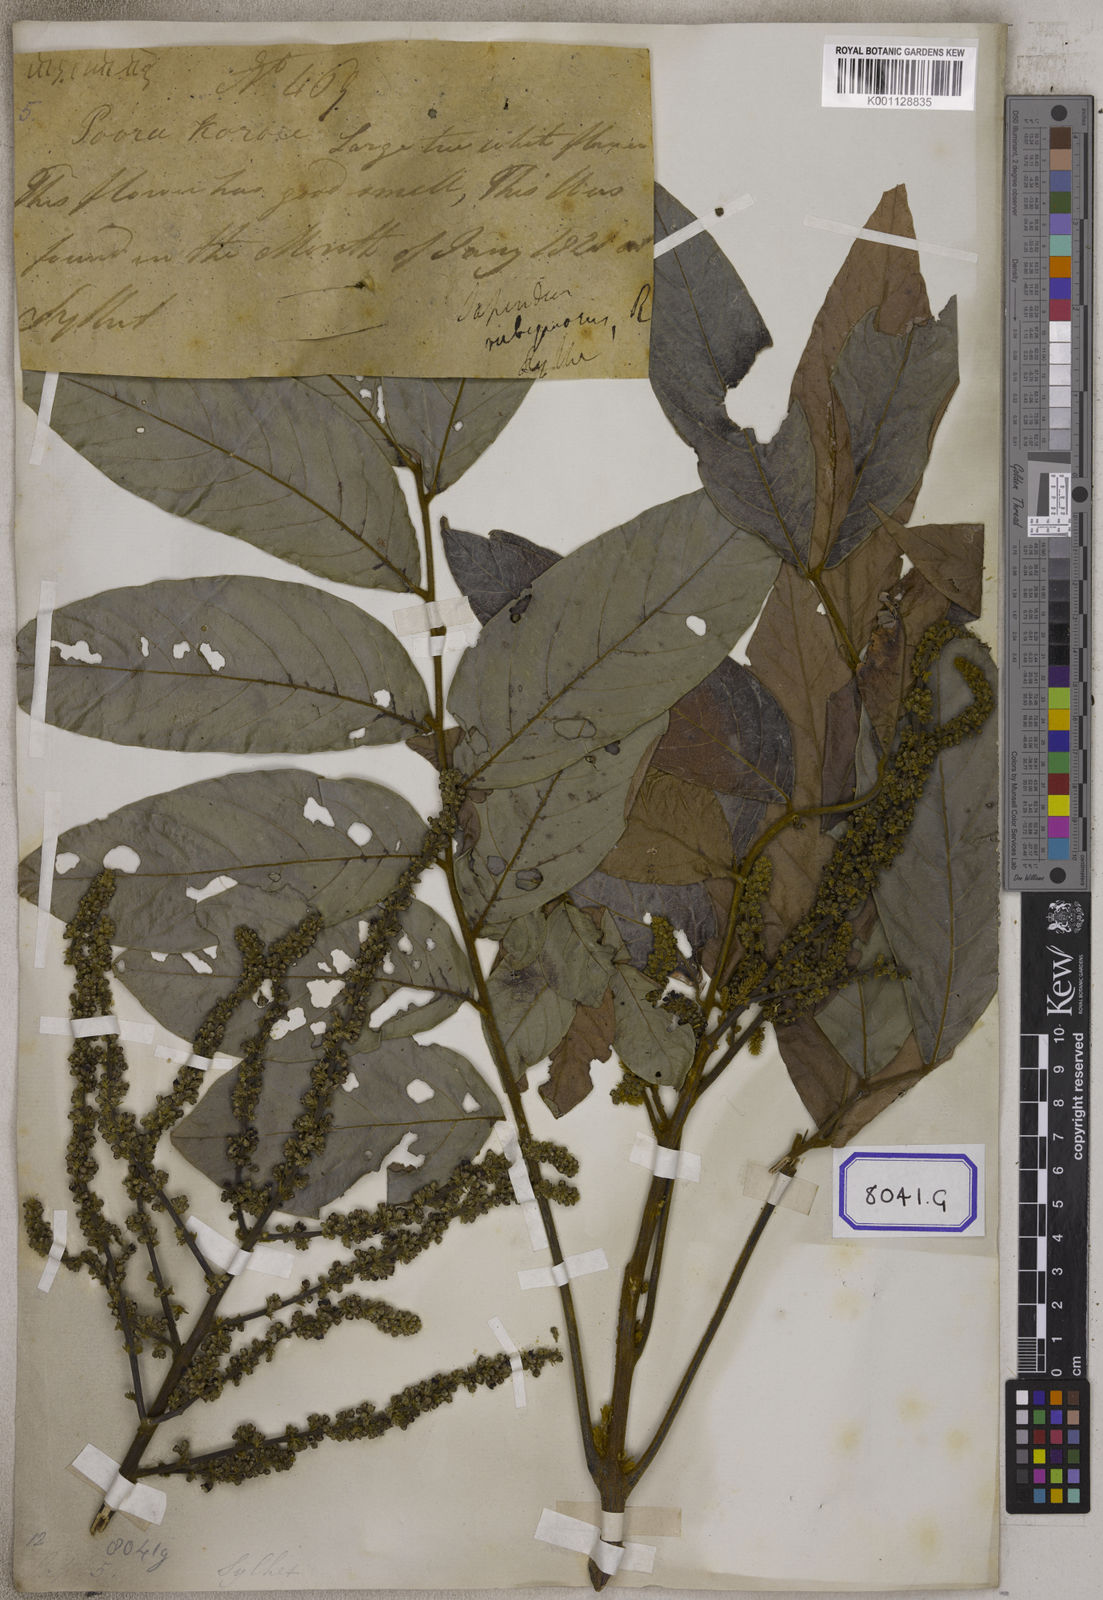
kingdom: Plantae
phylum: Tracheophyta
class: Magnoliopsida
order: Sapindales
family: Sapindaceae
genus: Lepisanthes
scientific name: Lepisanthes rubiginosa
